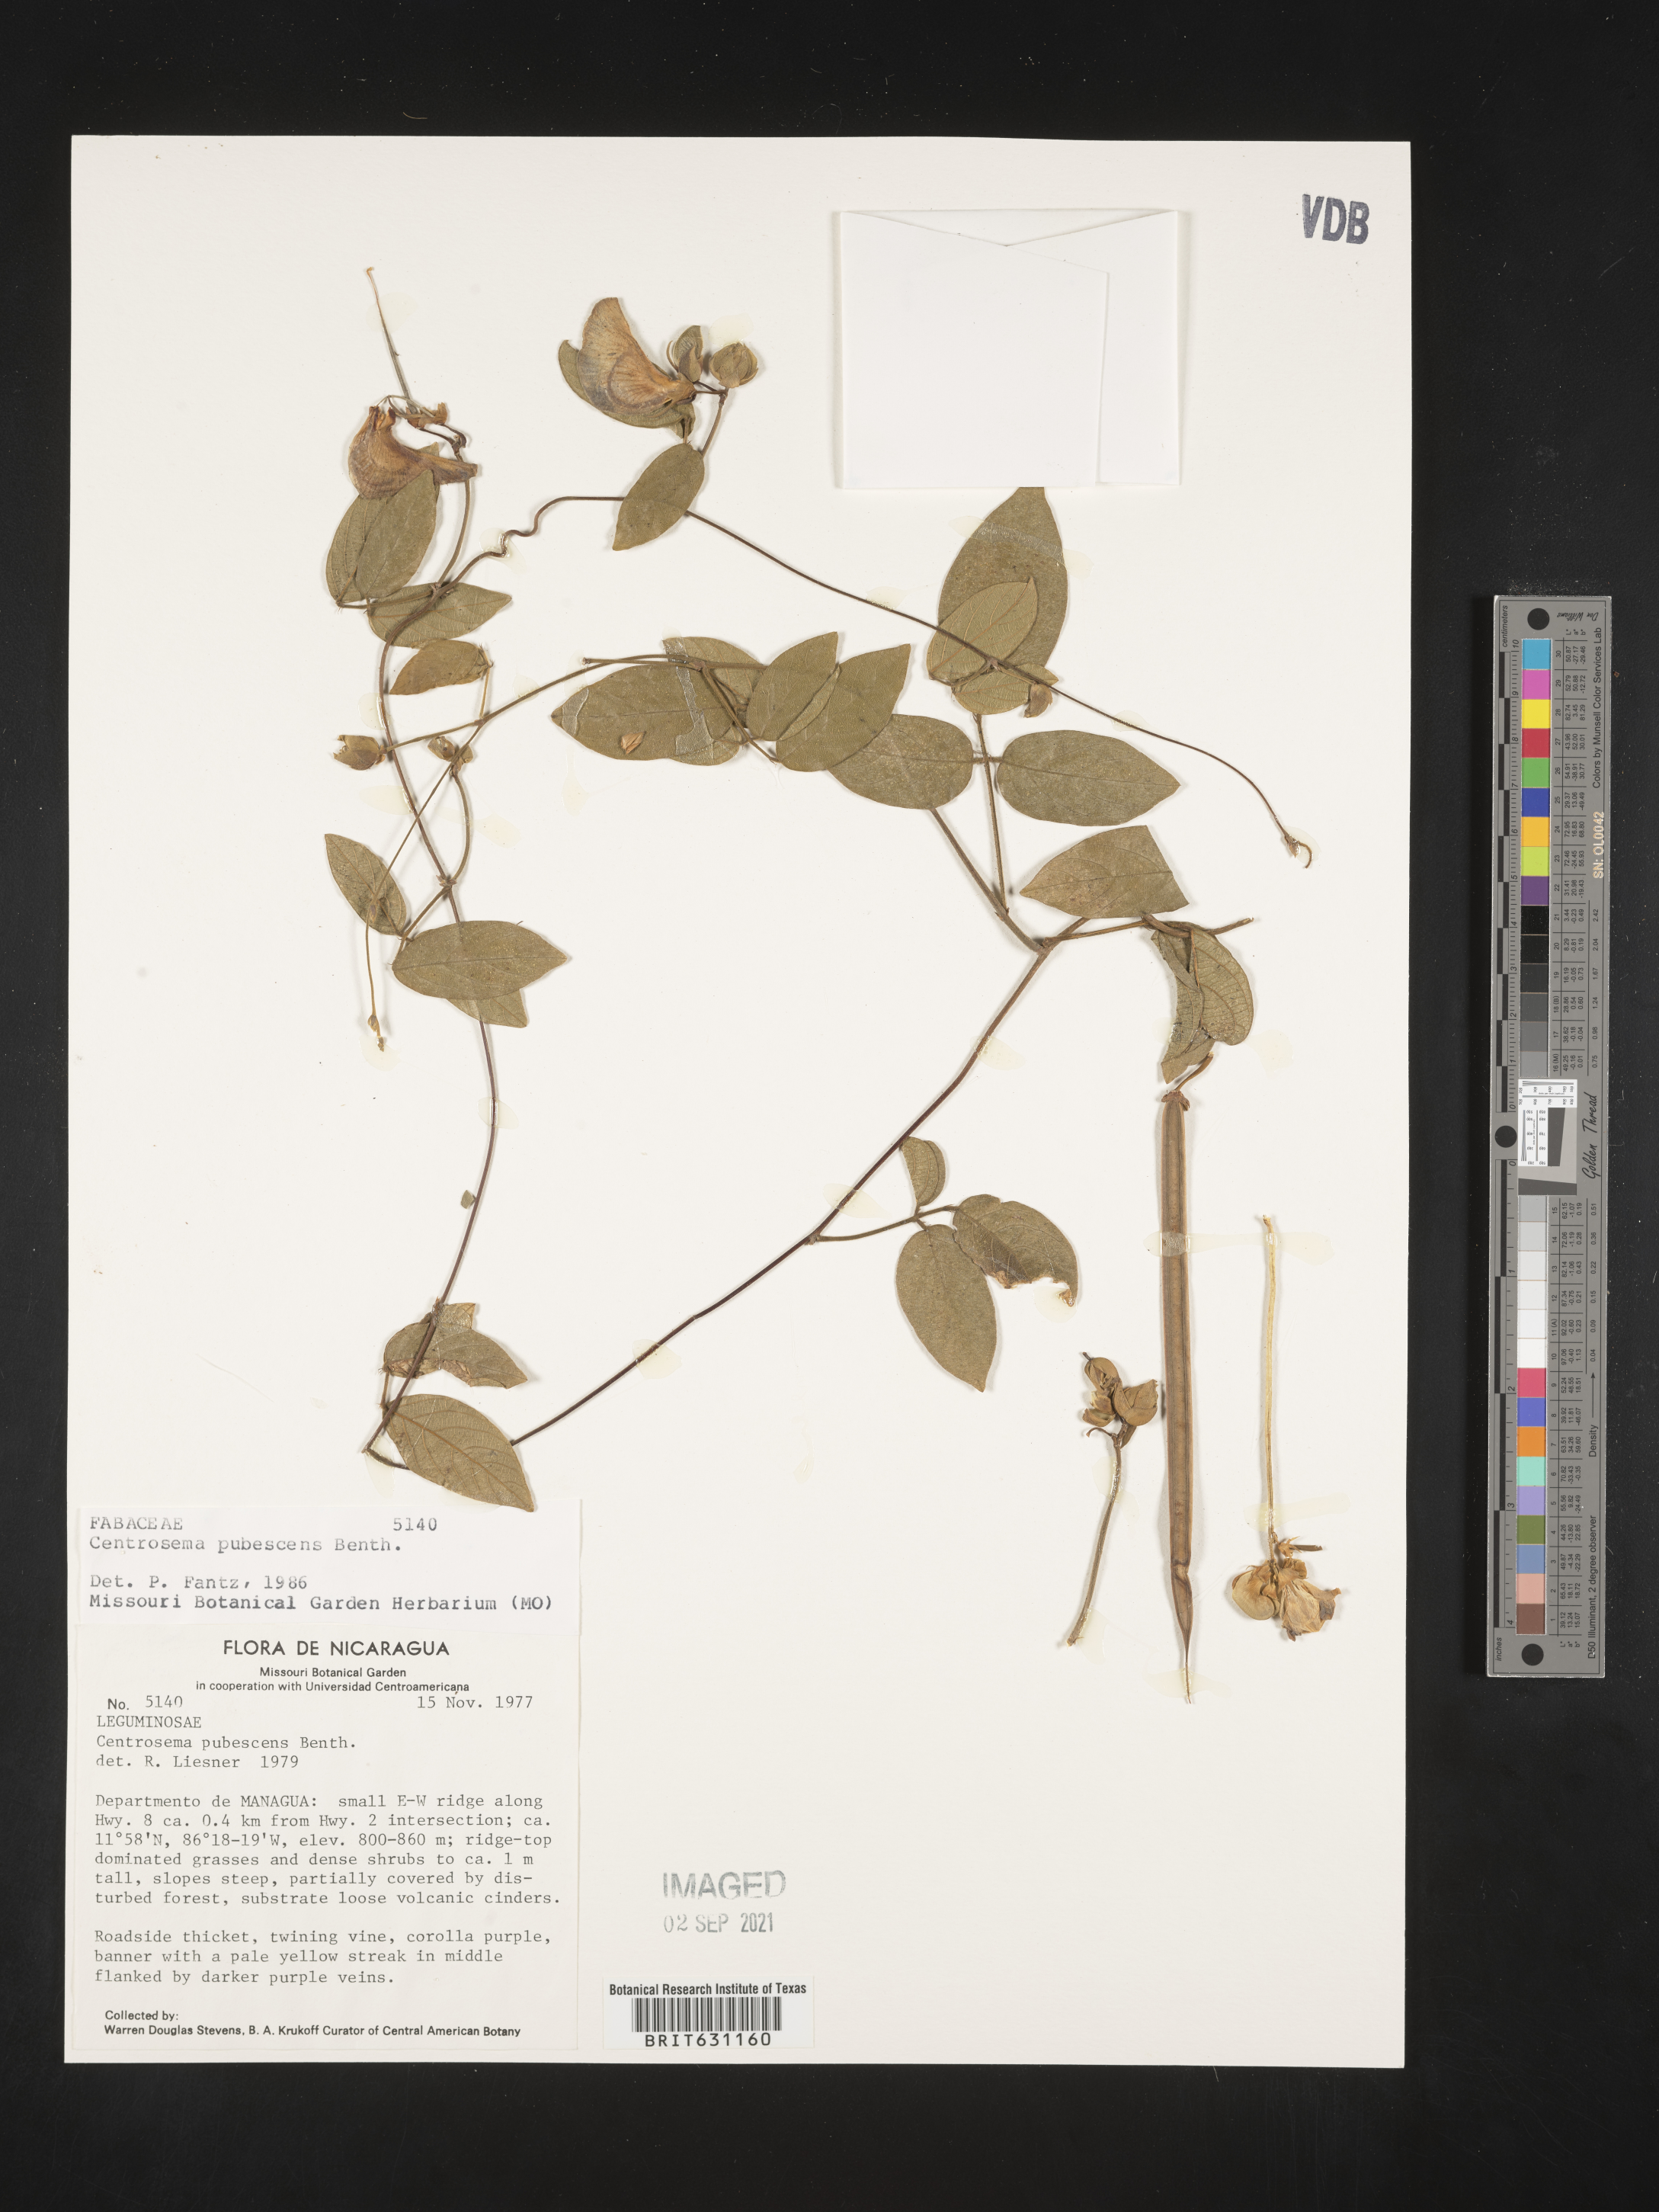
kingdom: Plantae
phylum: Tracheophyta
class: Magnoliopsida
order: Fabales
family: Fabaceae
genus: Centrosema
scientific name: Centrosema pubescens
